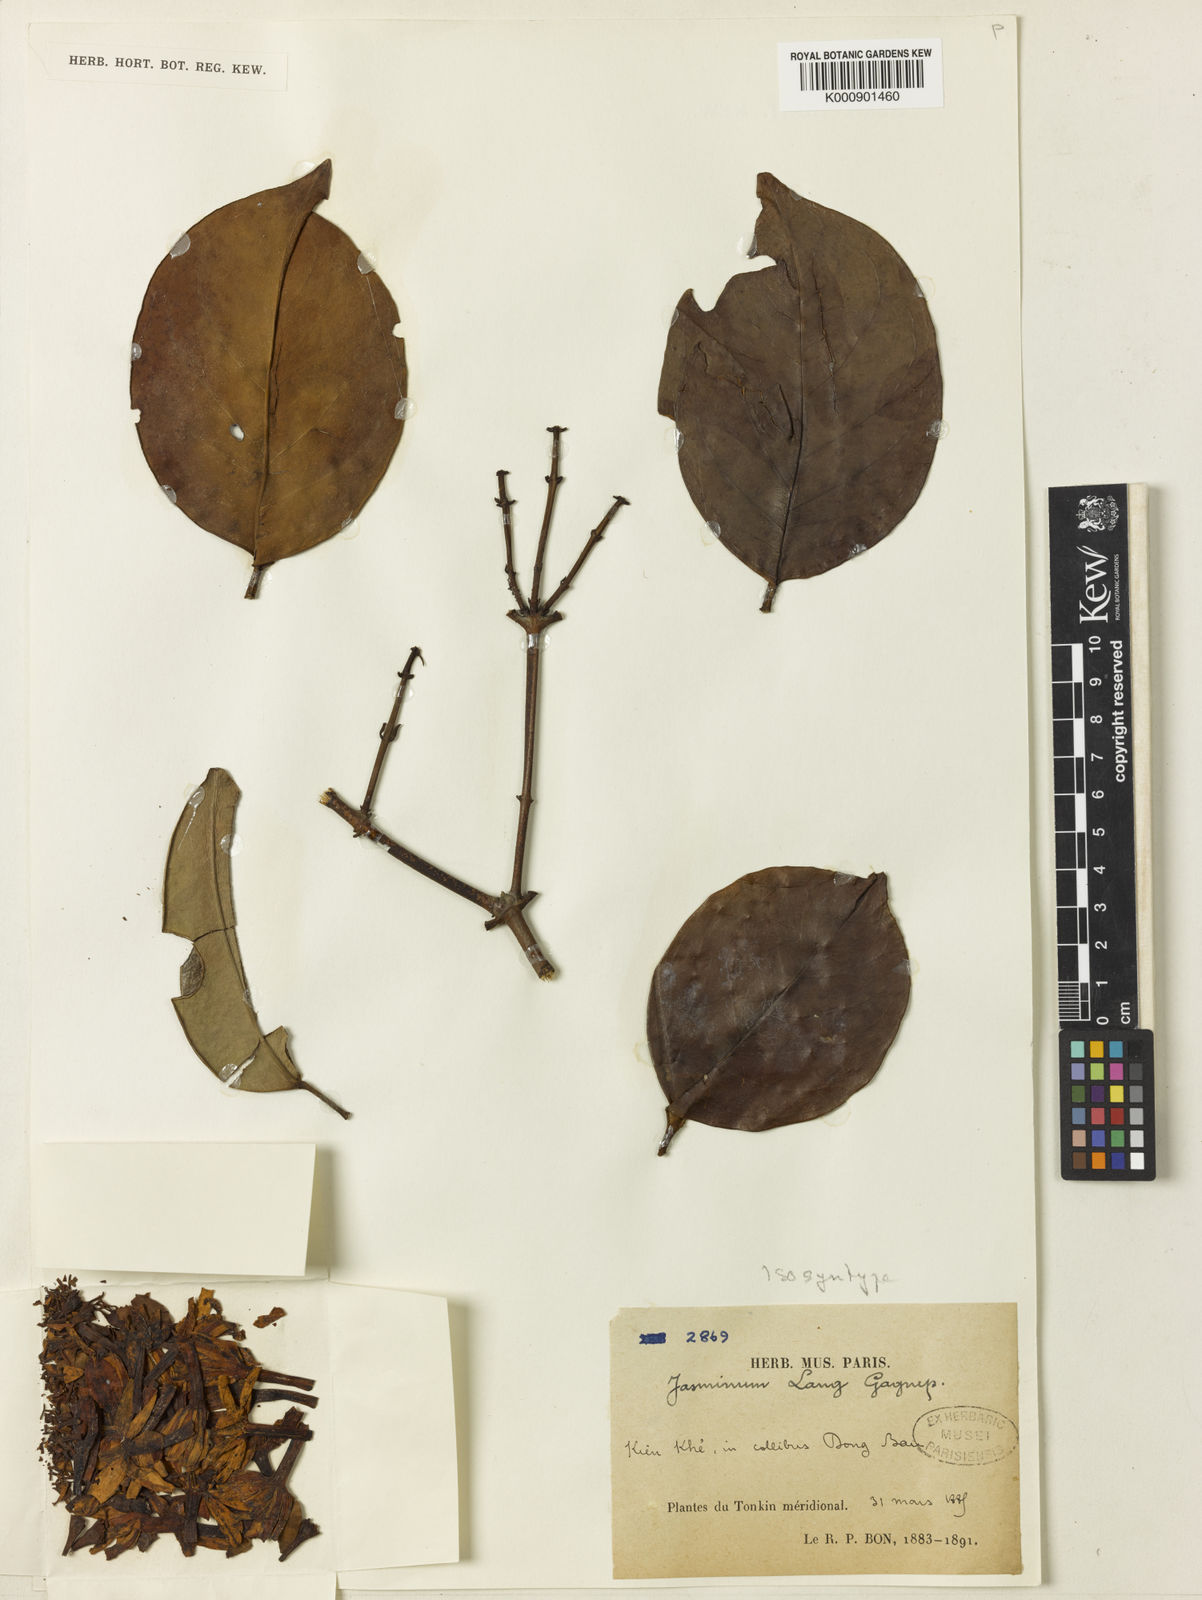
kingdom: Plantae
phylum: Tracheophyta
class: Magnoliopsida
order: Lamiales
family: Oleaceae
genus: Jasminum
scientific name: Jasminum coffeinum
